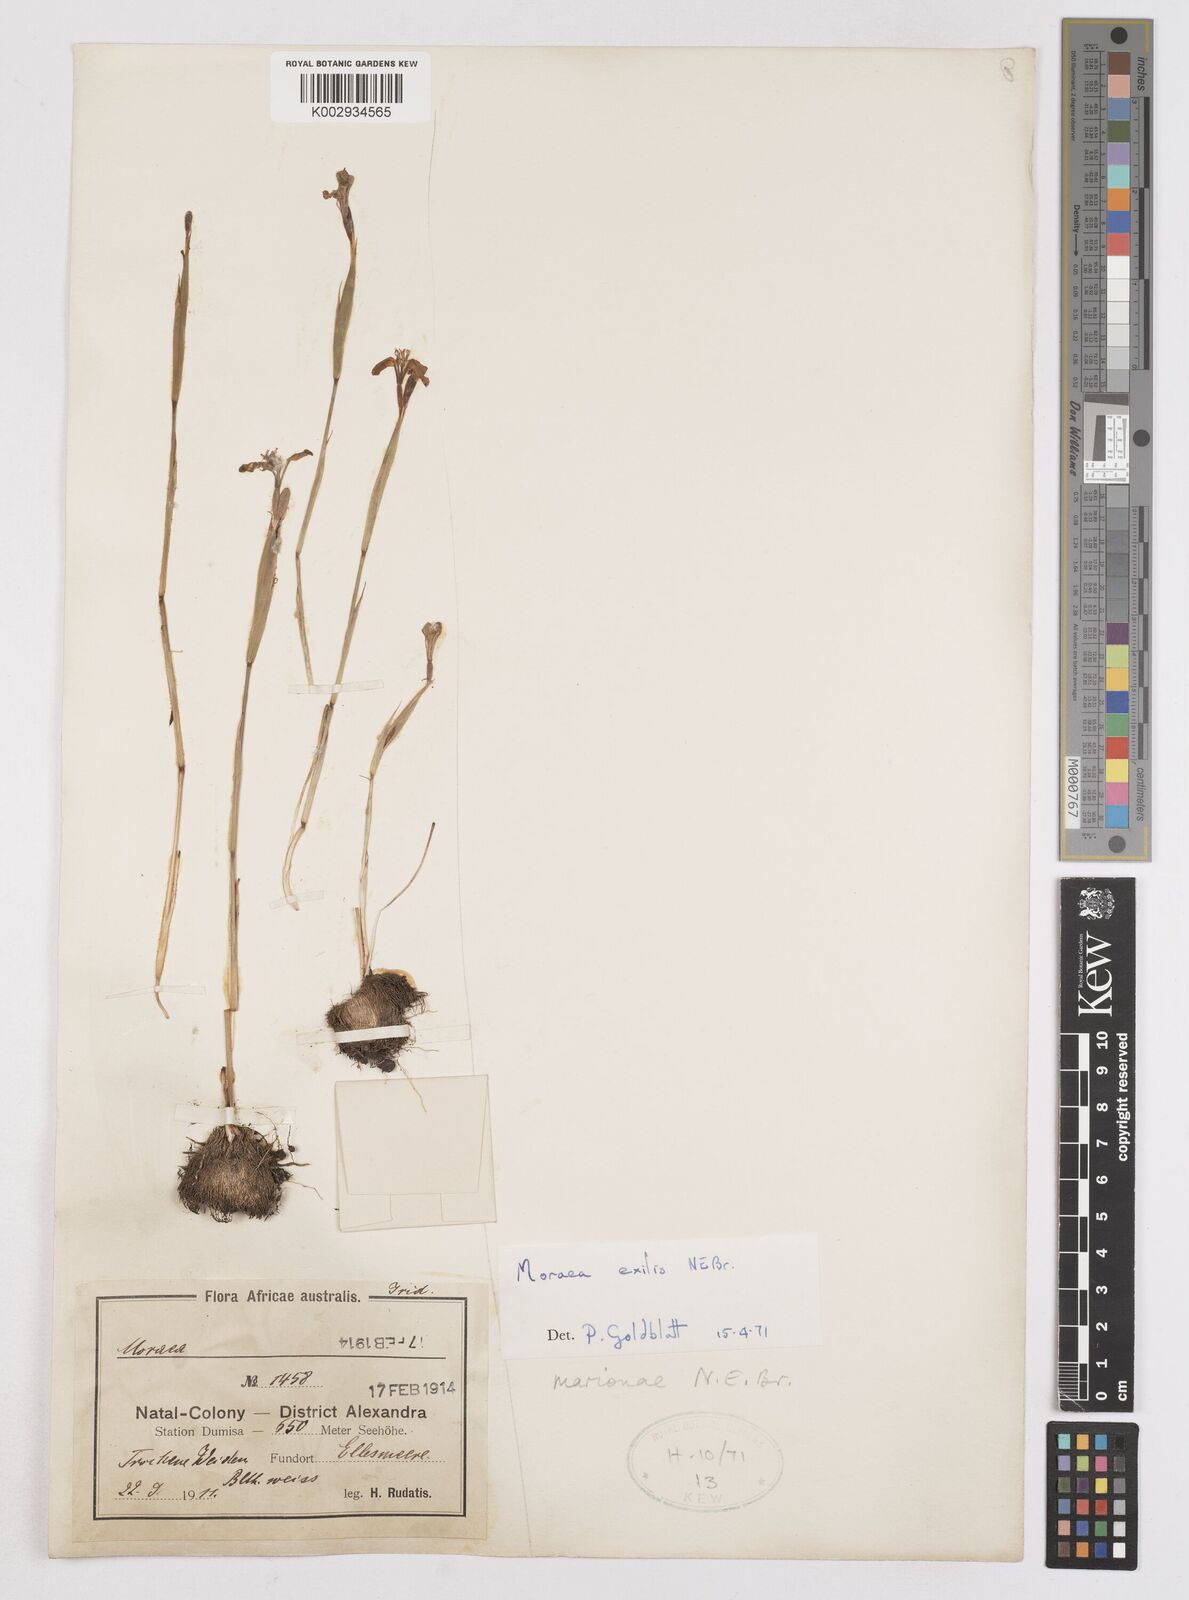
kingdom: Plantae
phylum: Tracheophyta
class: Liliopsida
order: Asparagales
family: Iridaceae
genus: Moraea
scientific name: Moraea marionae
